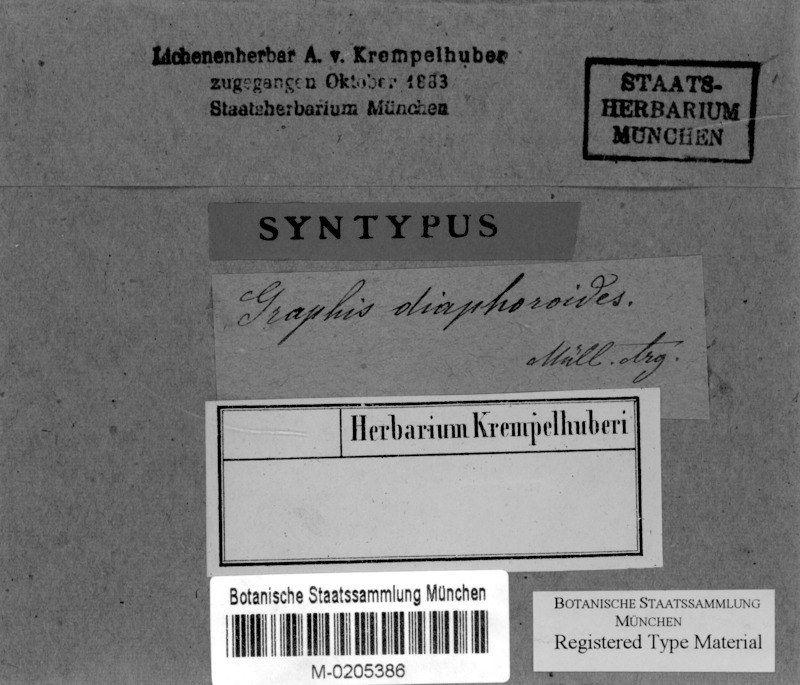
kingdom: Fungi
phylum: Ascomycota
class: Lecanoromycetes
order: Ostropales
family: Graphidaceae
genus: Graphis
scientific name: Graphis diaphoroides
